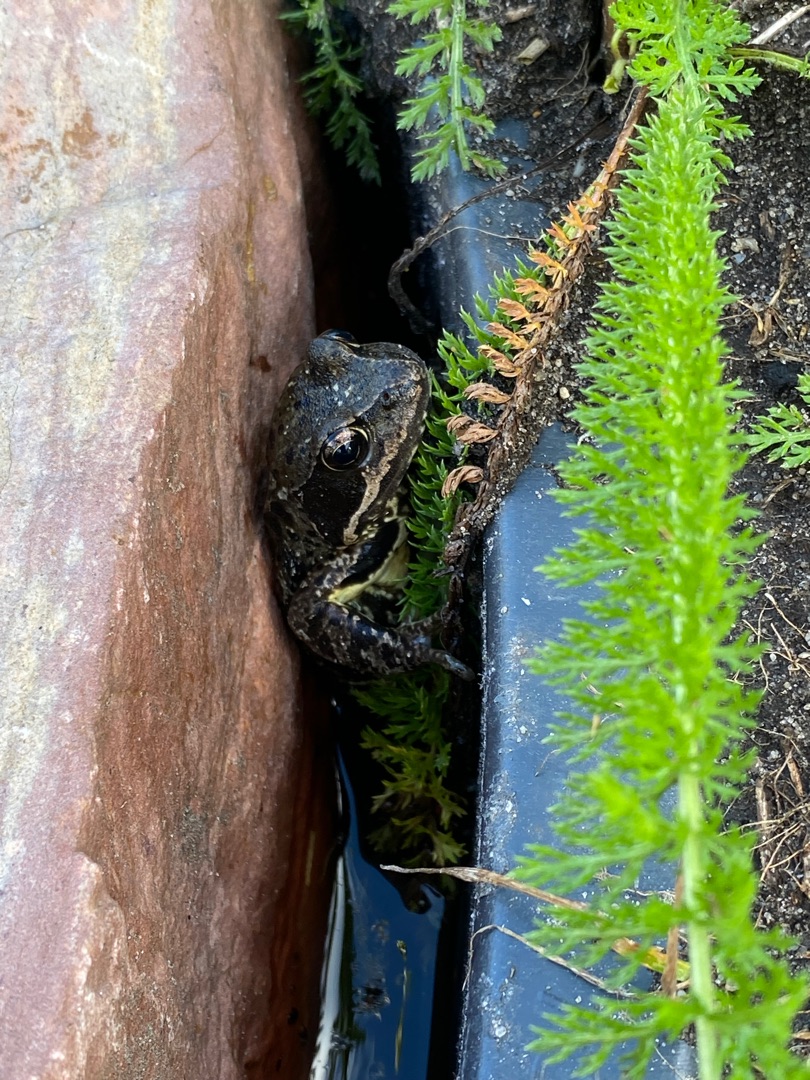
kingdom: Animalia
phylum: Chordata
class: Amphibia
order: Anura
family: Ranidae
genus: Rana
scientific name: Rana temporaria
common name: Butsnudet frø
